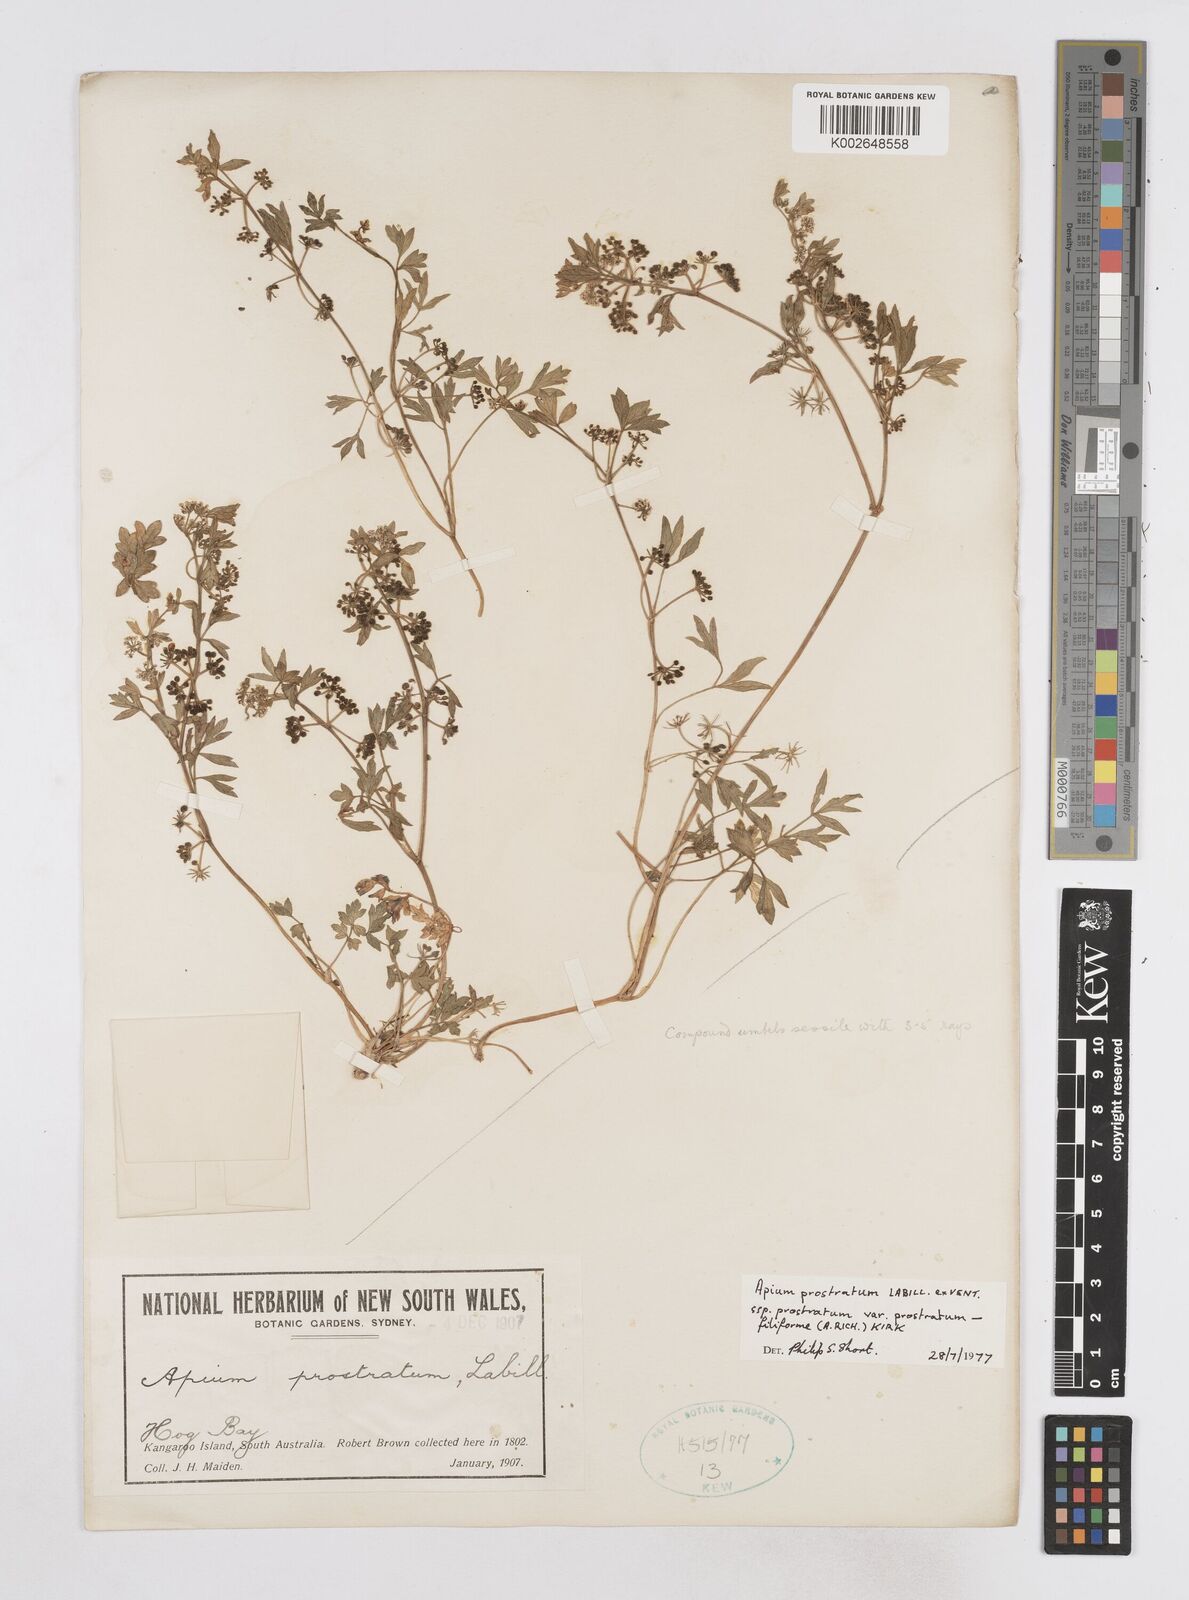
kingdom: Plantae
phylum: Tracheophyta
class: Magnoliopsida
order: Apiales
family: Apiaceae
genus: Apium
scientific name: Apium prostratum
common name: Prostrate marshwort
